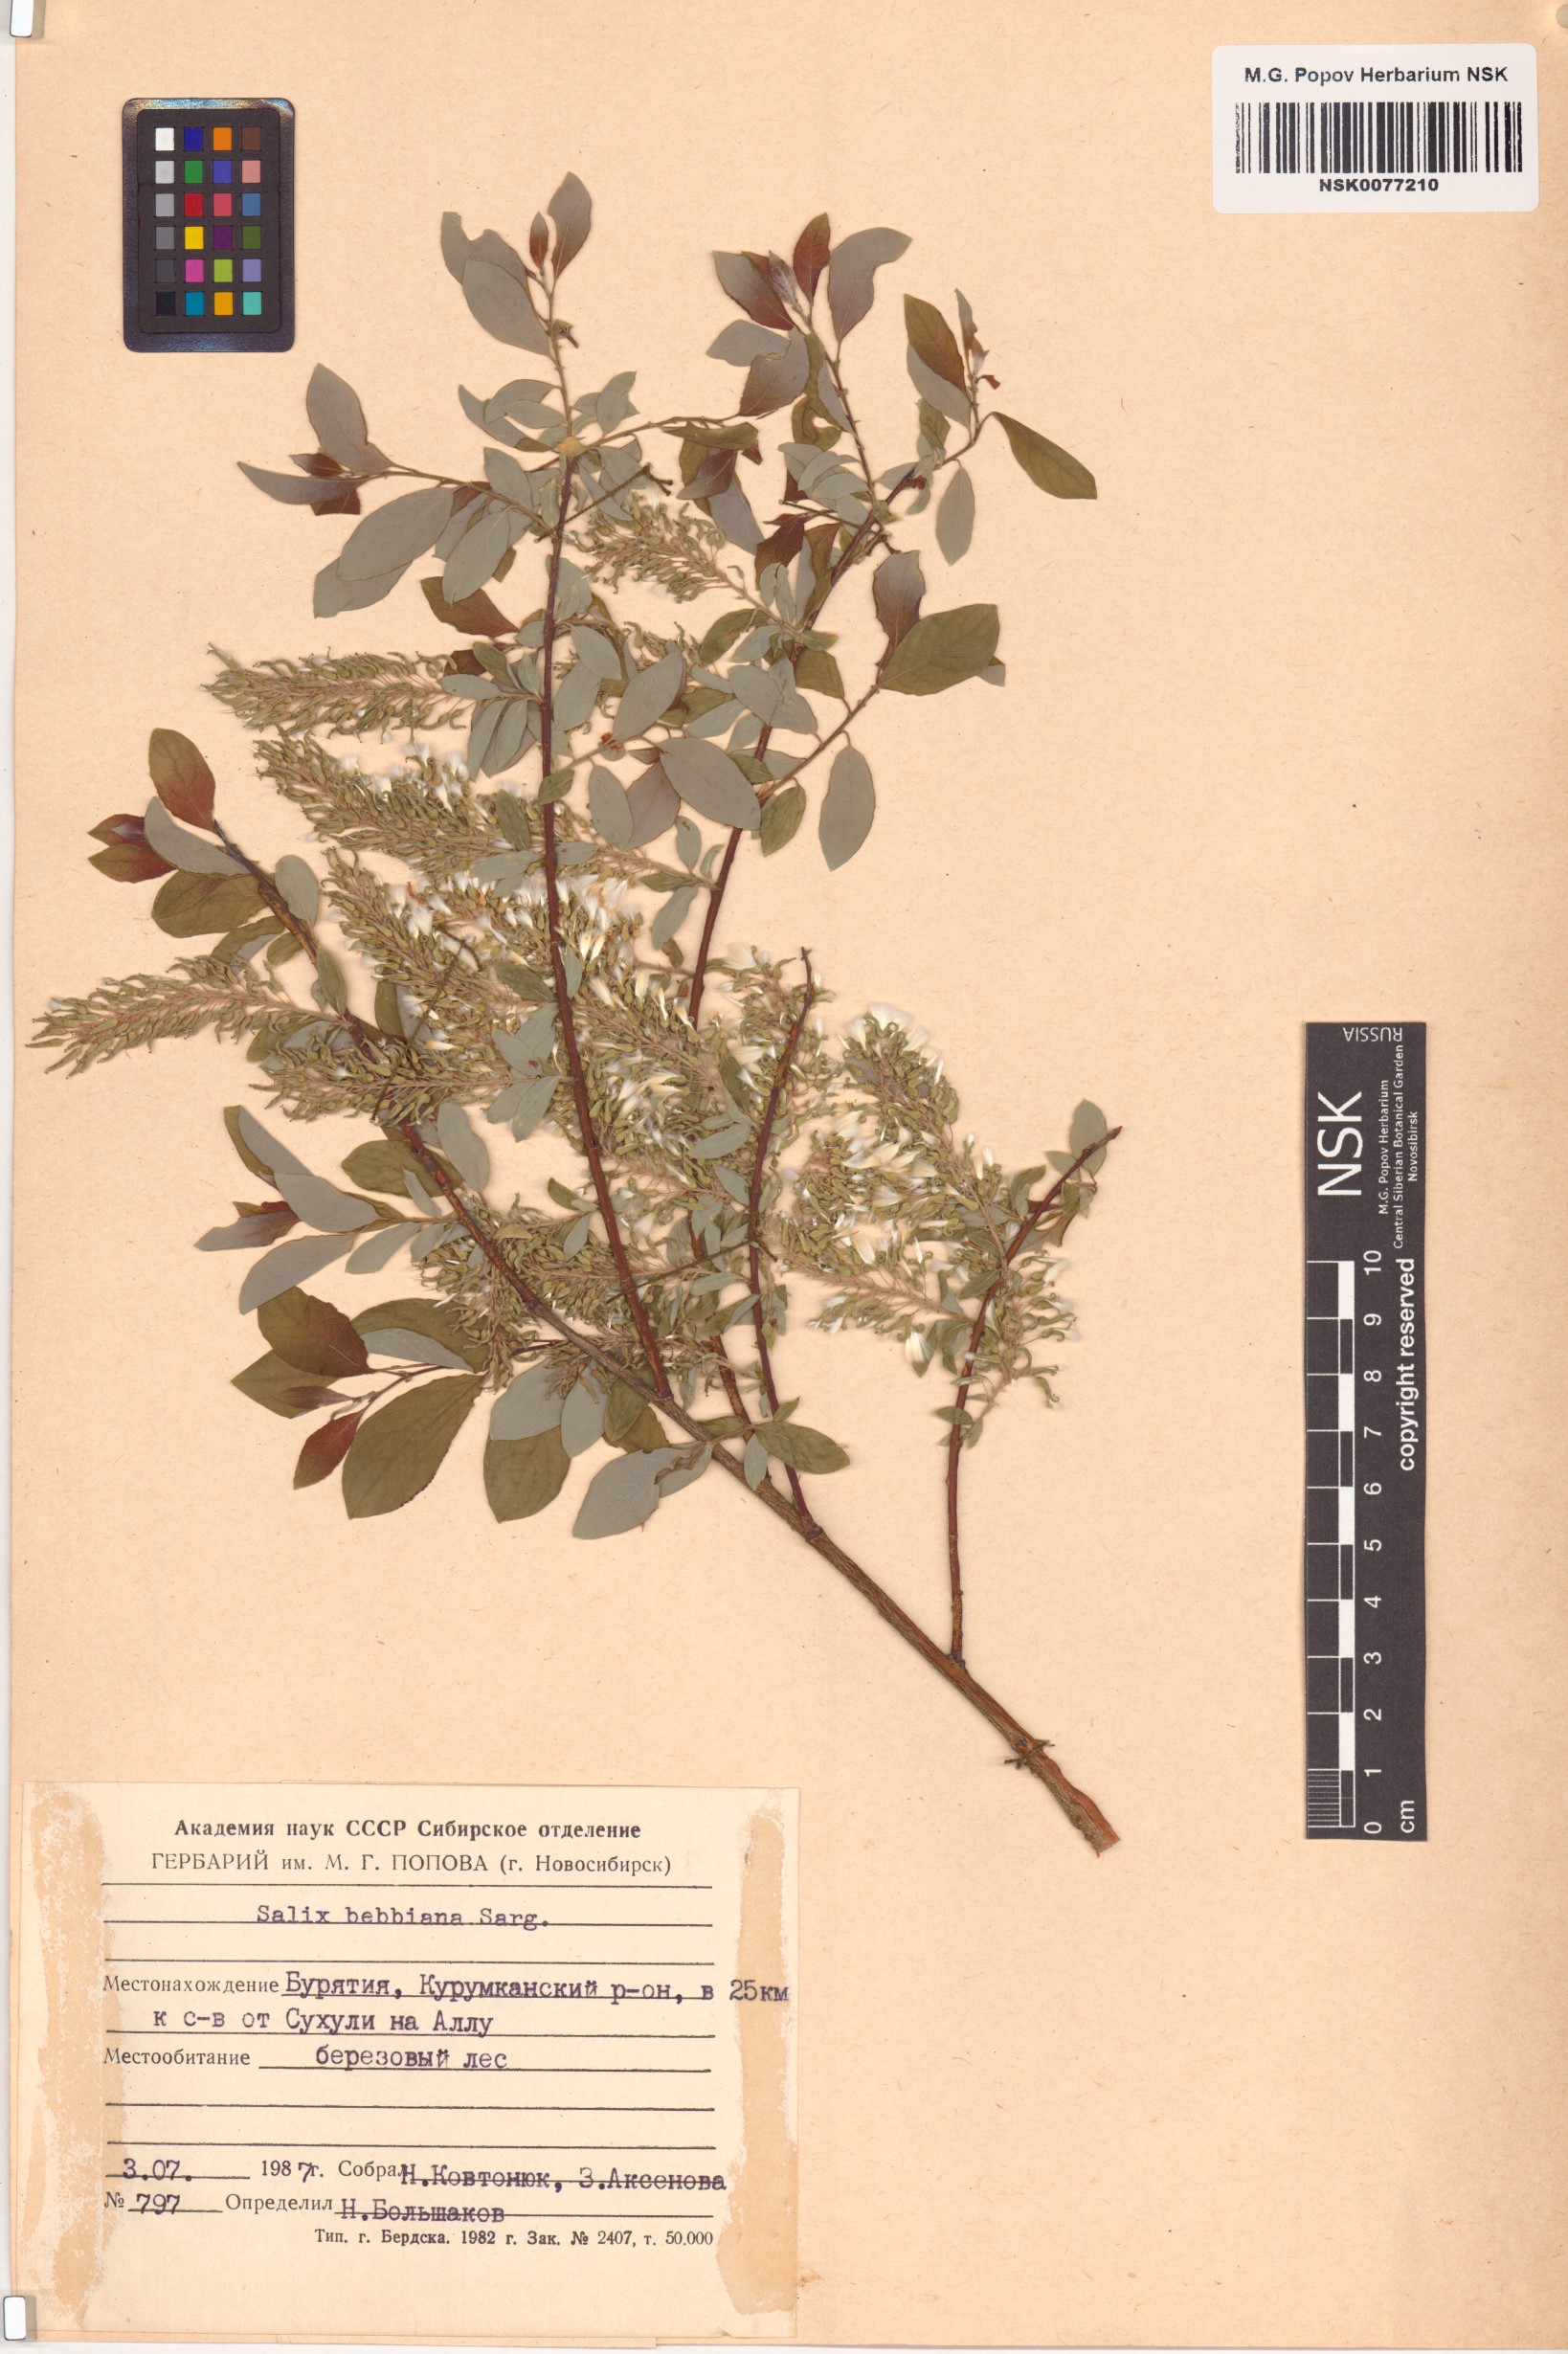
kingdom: Plantae
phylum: Tracheophyta
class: Magnoliopsida
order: Malpighiales
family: Salicaceae
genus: Salix
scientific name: Salix bebbiana
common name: Bebb's willow
